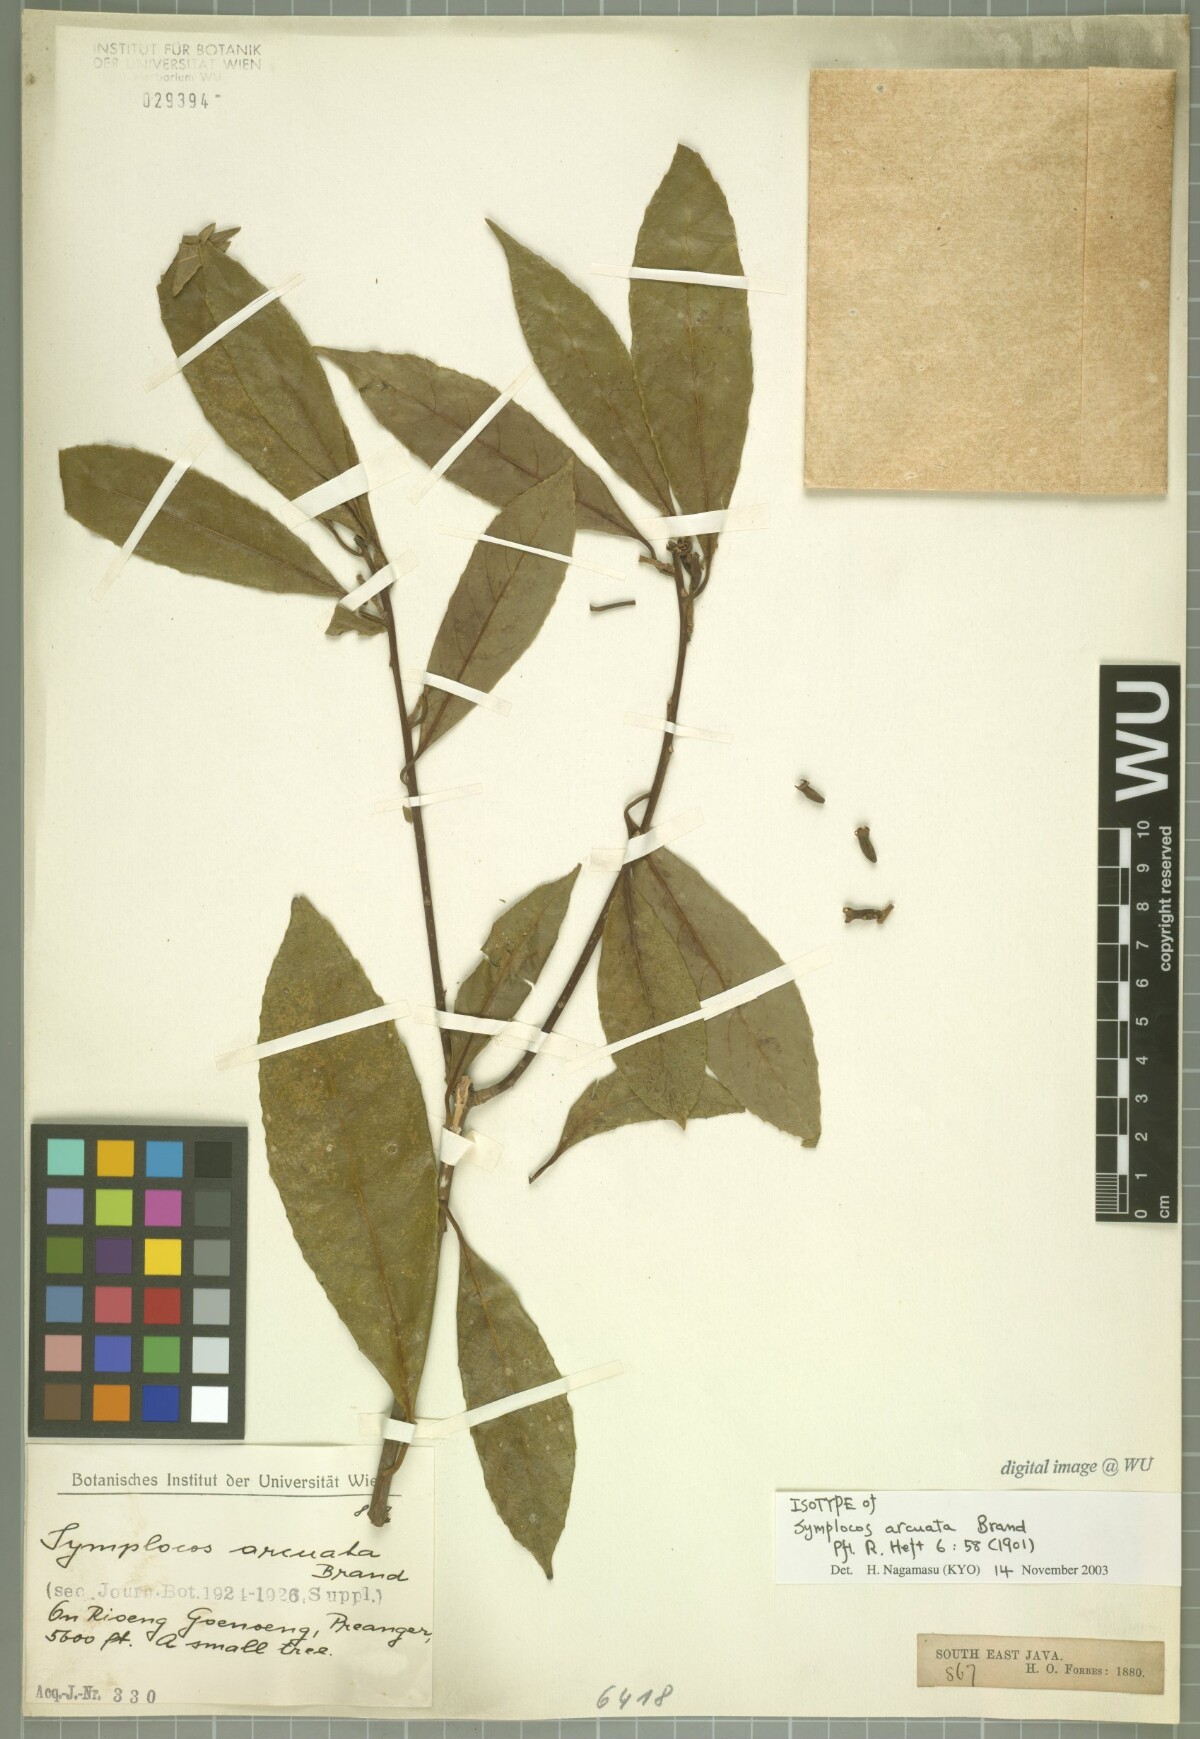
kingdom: Plantae
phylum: Tracheophyta
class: Magnoliopsida
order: Ericales
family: Symplocaceae
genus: Symplocos
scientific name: Symplocos costata
